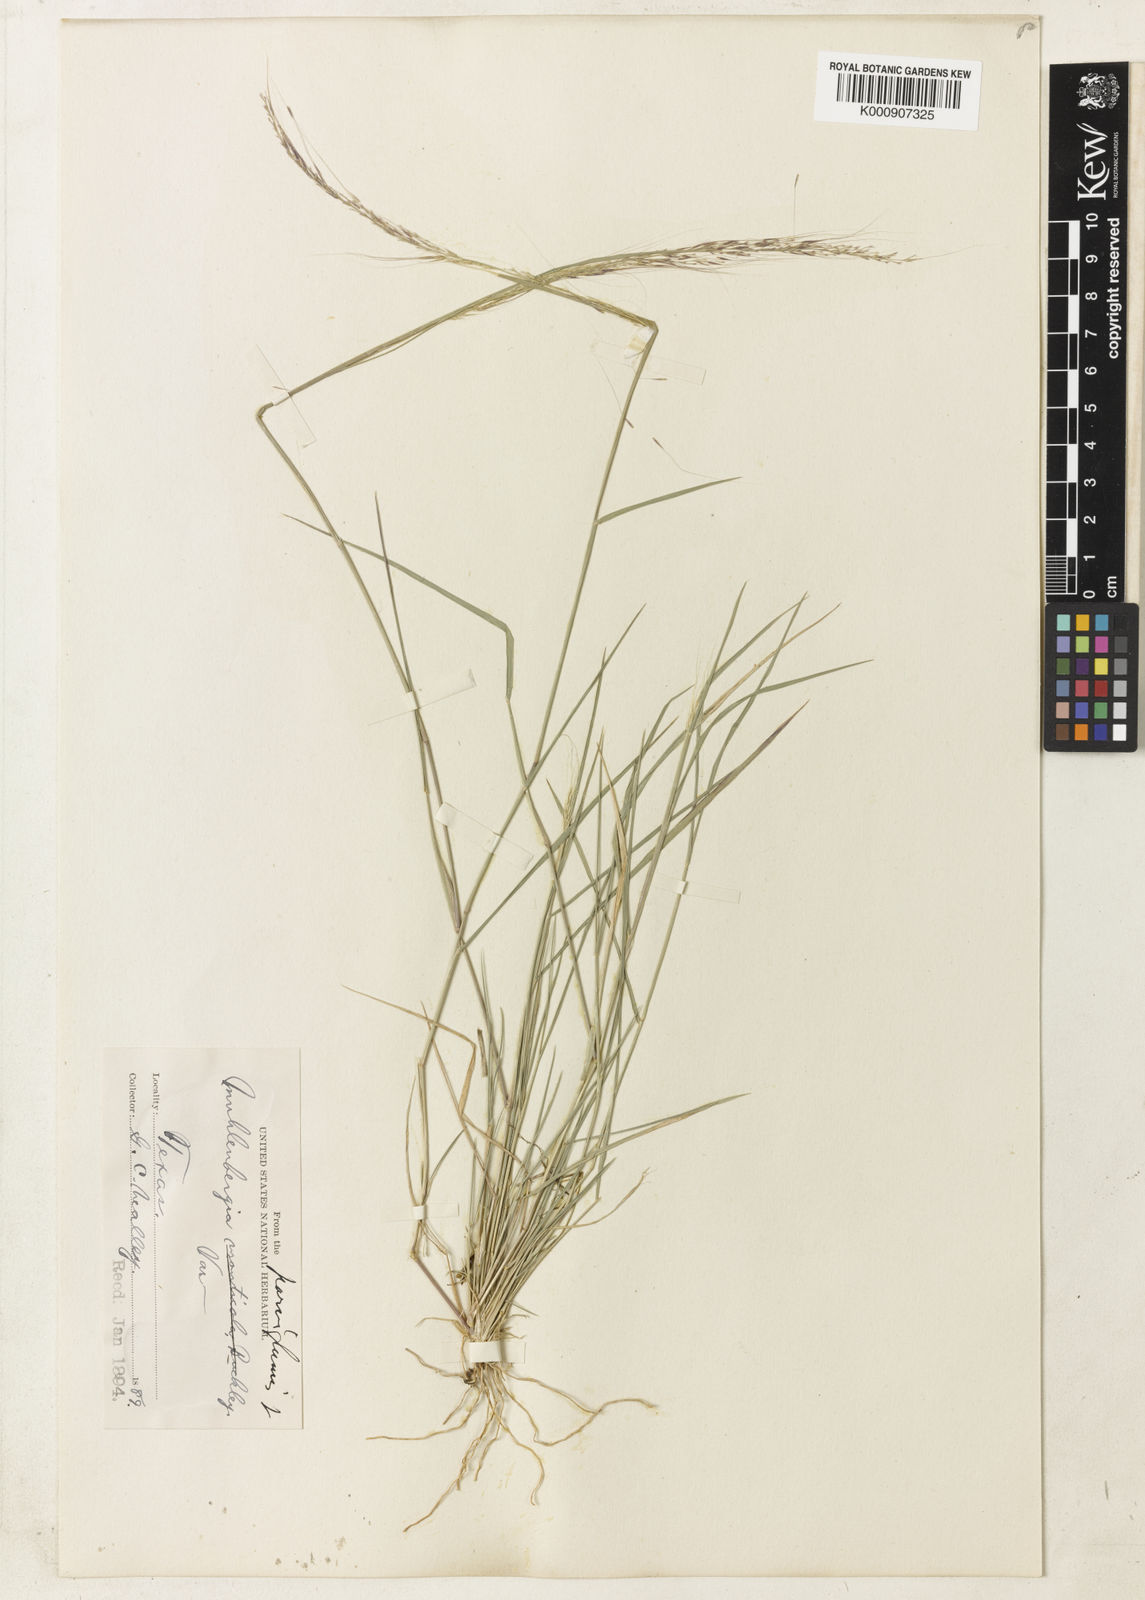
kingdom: Plantae
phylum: Tracheophyta
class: Liliopsida
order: Poales
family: Poaceae
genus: Muhlenbergia
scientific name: Muhlenbergia spiciformis
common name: Longawn muhly
